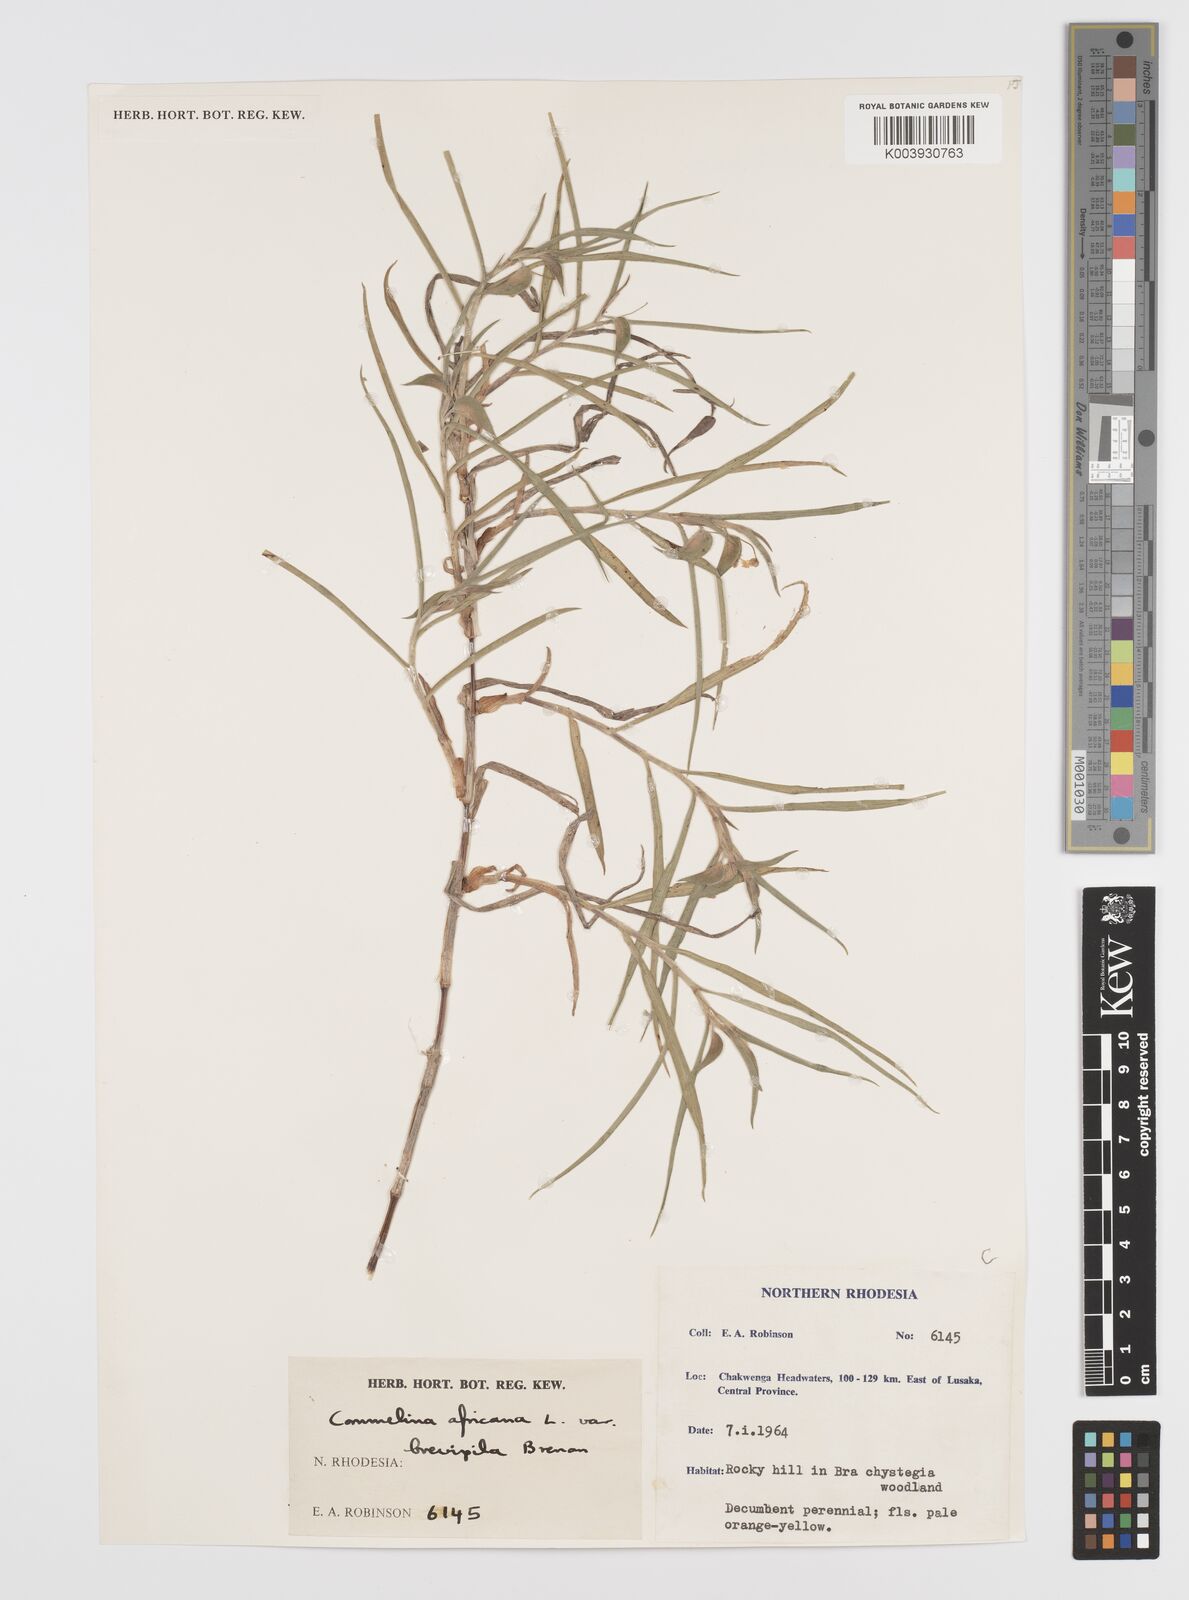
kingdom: Plantae
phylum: Tracheophyta
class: Liliopsida
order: Commelinales
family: Commelinaceae
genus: Commelina
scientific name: Commelina africana
